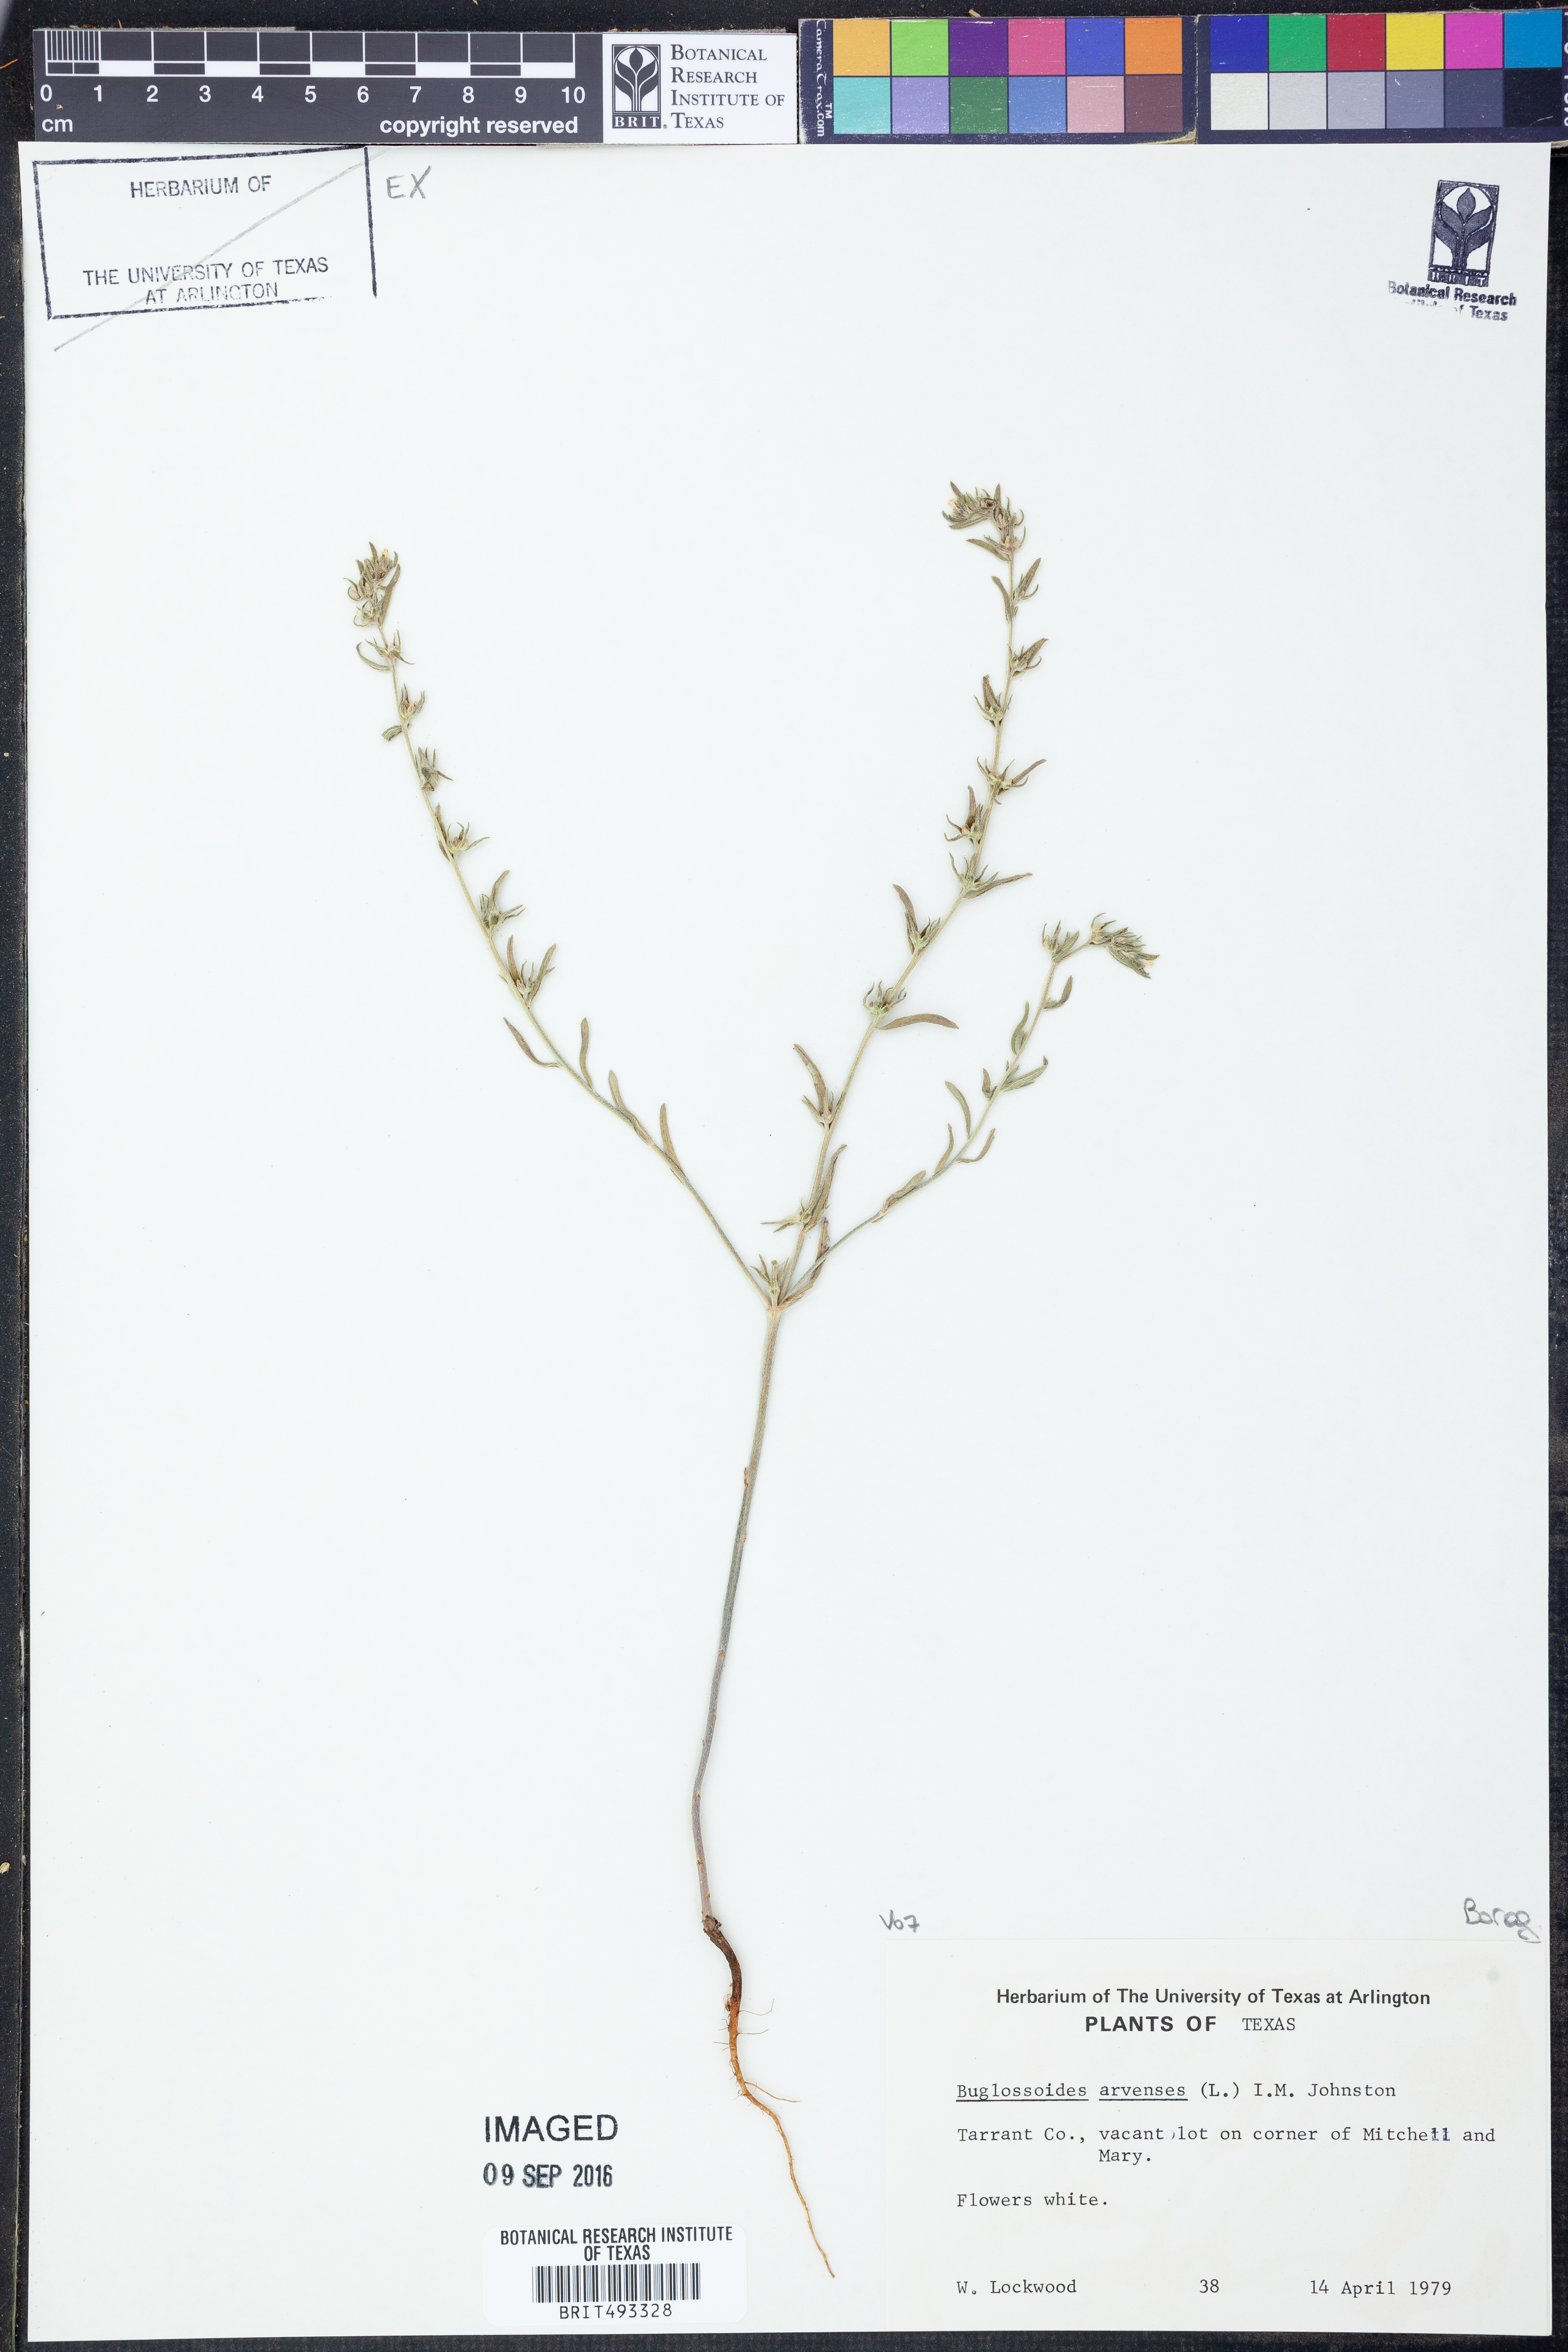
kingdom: Plantae
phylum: Tracheophyta
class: Magnoliopsida
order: Boraginales
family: Boraginaceae
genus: Buglossoides
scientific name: Buglossoides arvensis
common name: Corn gromwell
